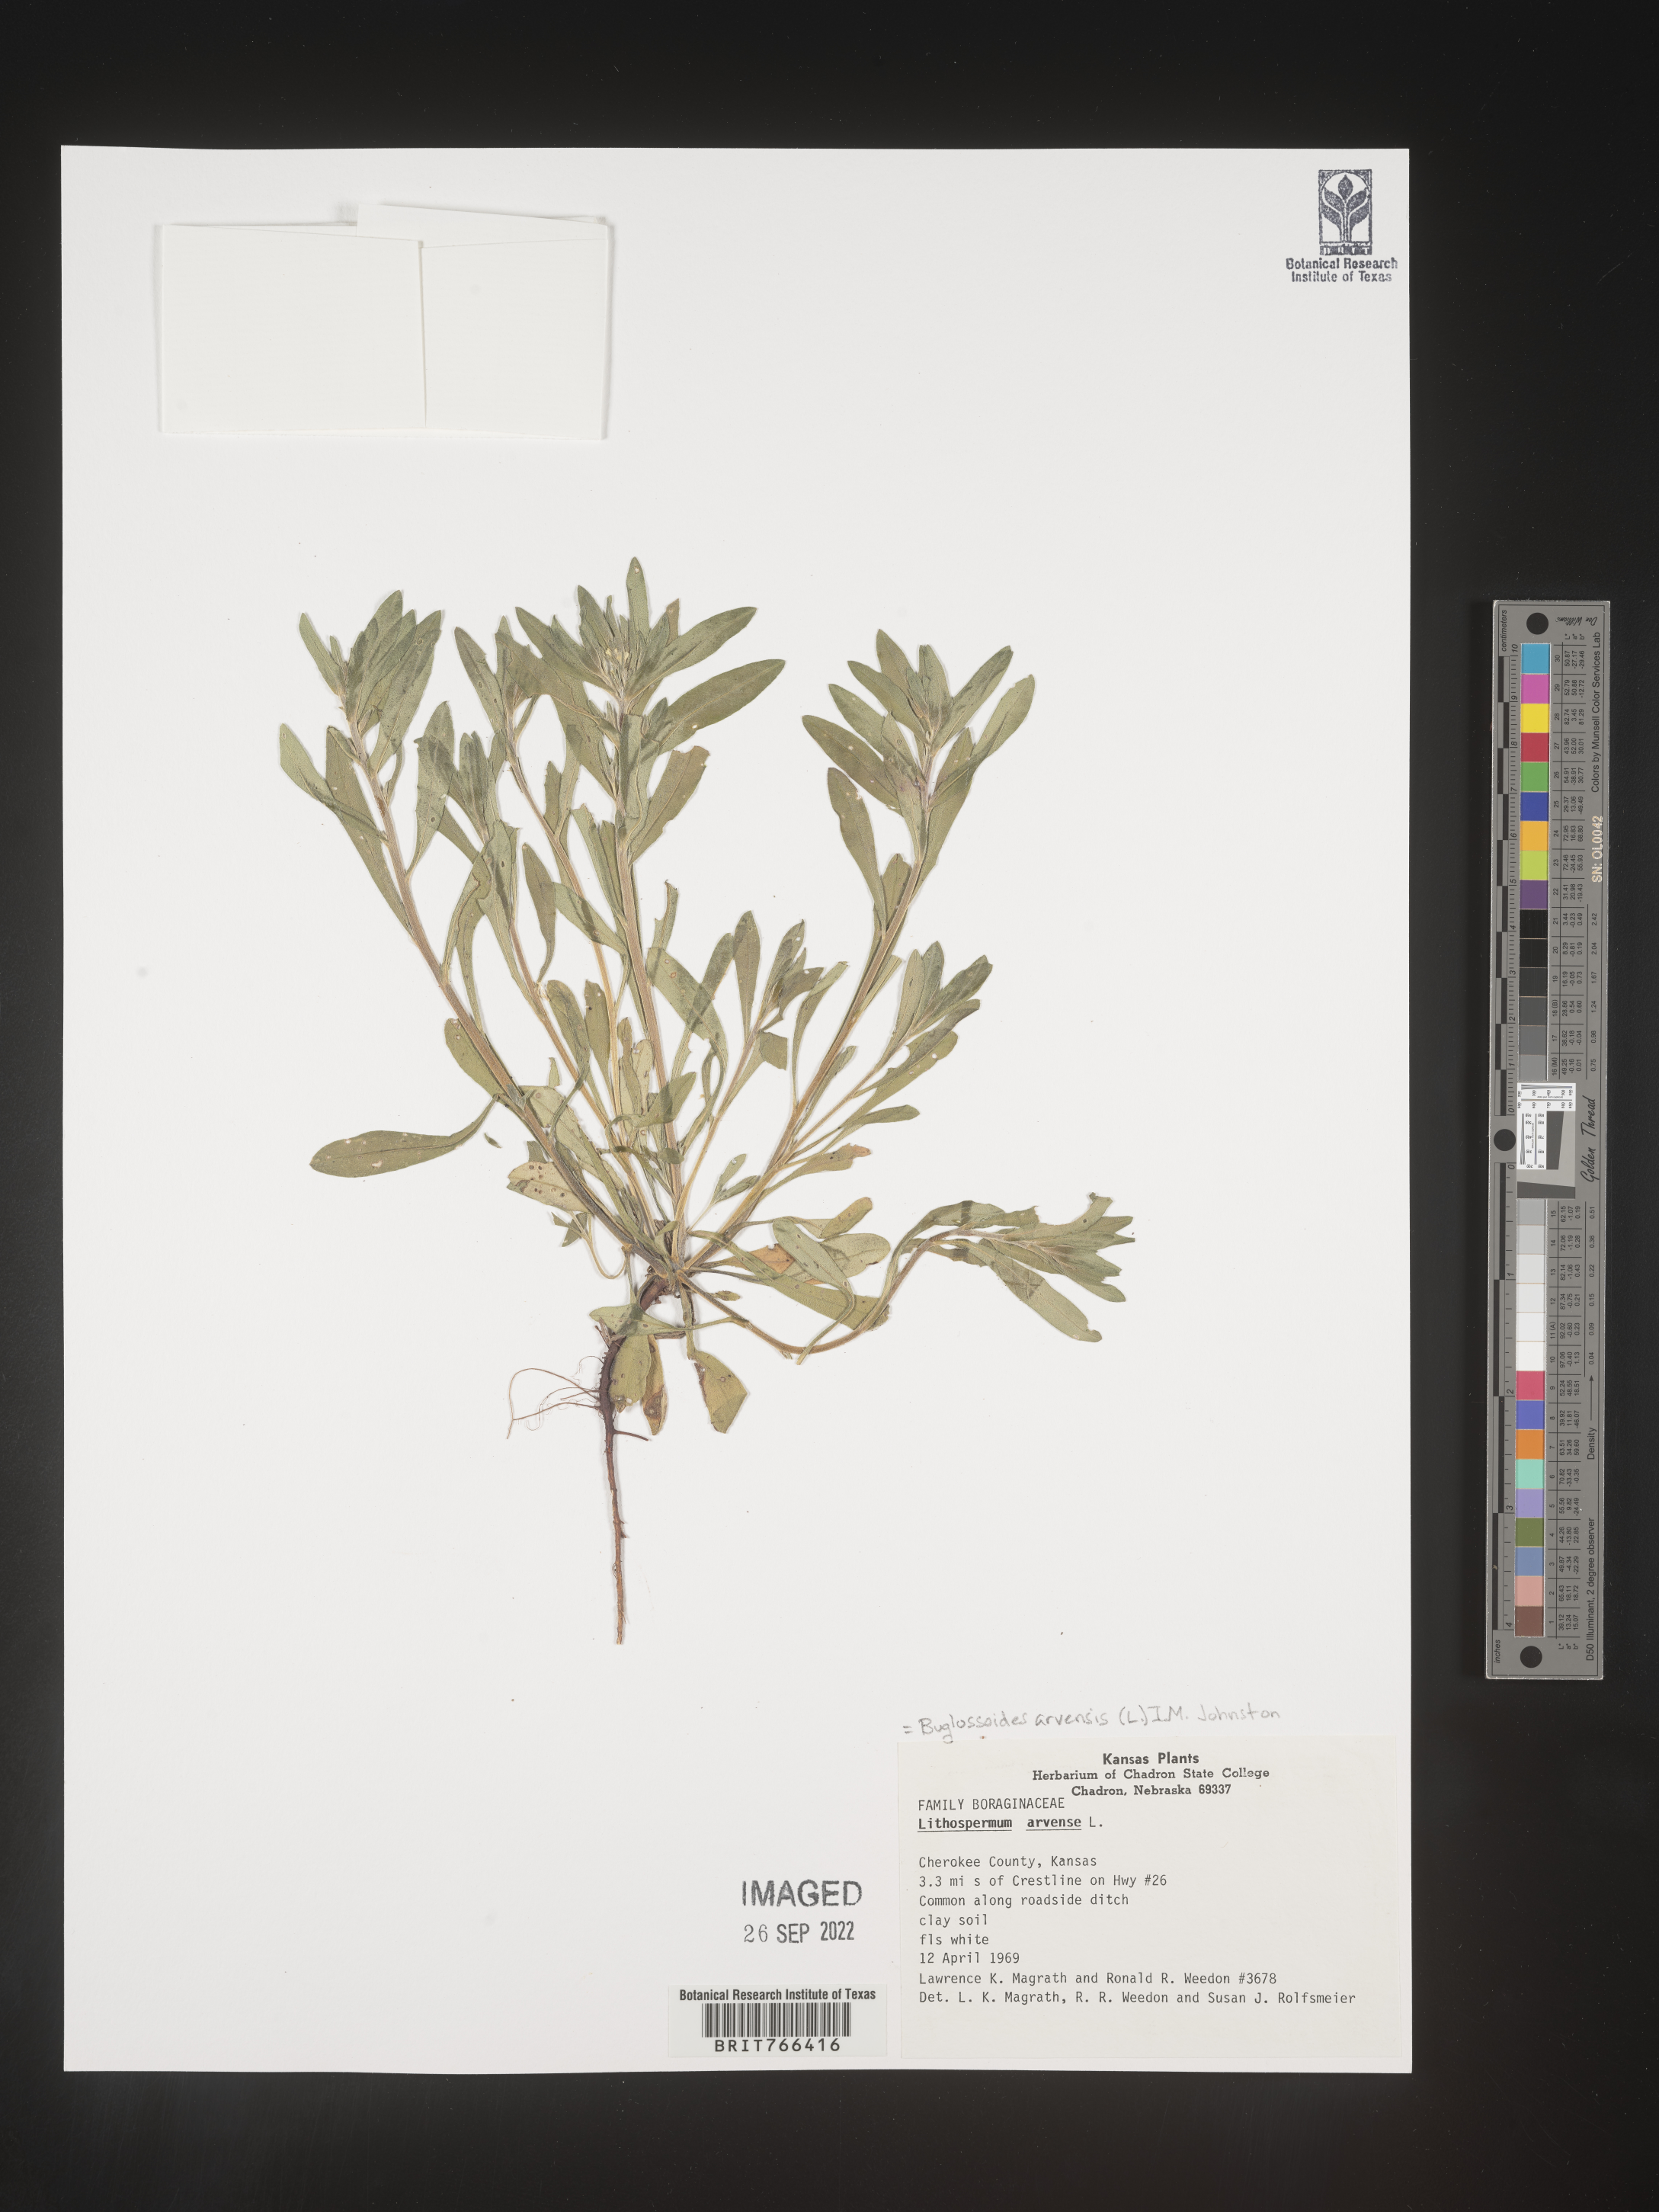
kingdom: Plantae
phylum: Tracheophyta
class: Magnoliopsida
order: Boraginales
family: Boraginaceae
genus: Buglossoides
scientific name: Buglossoides arvensis
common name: Corn gromwell
